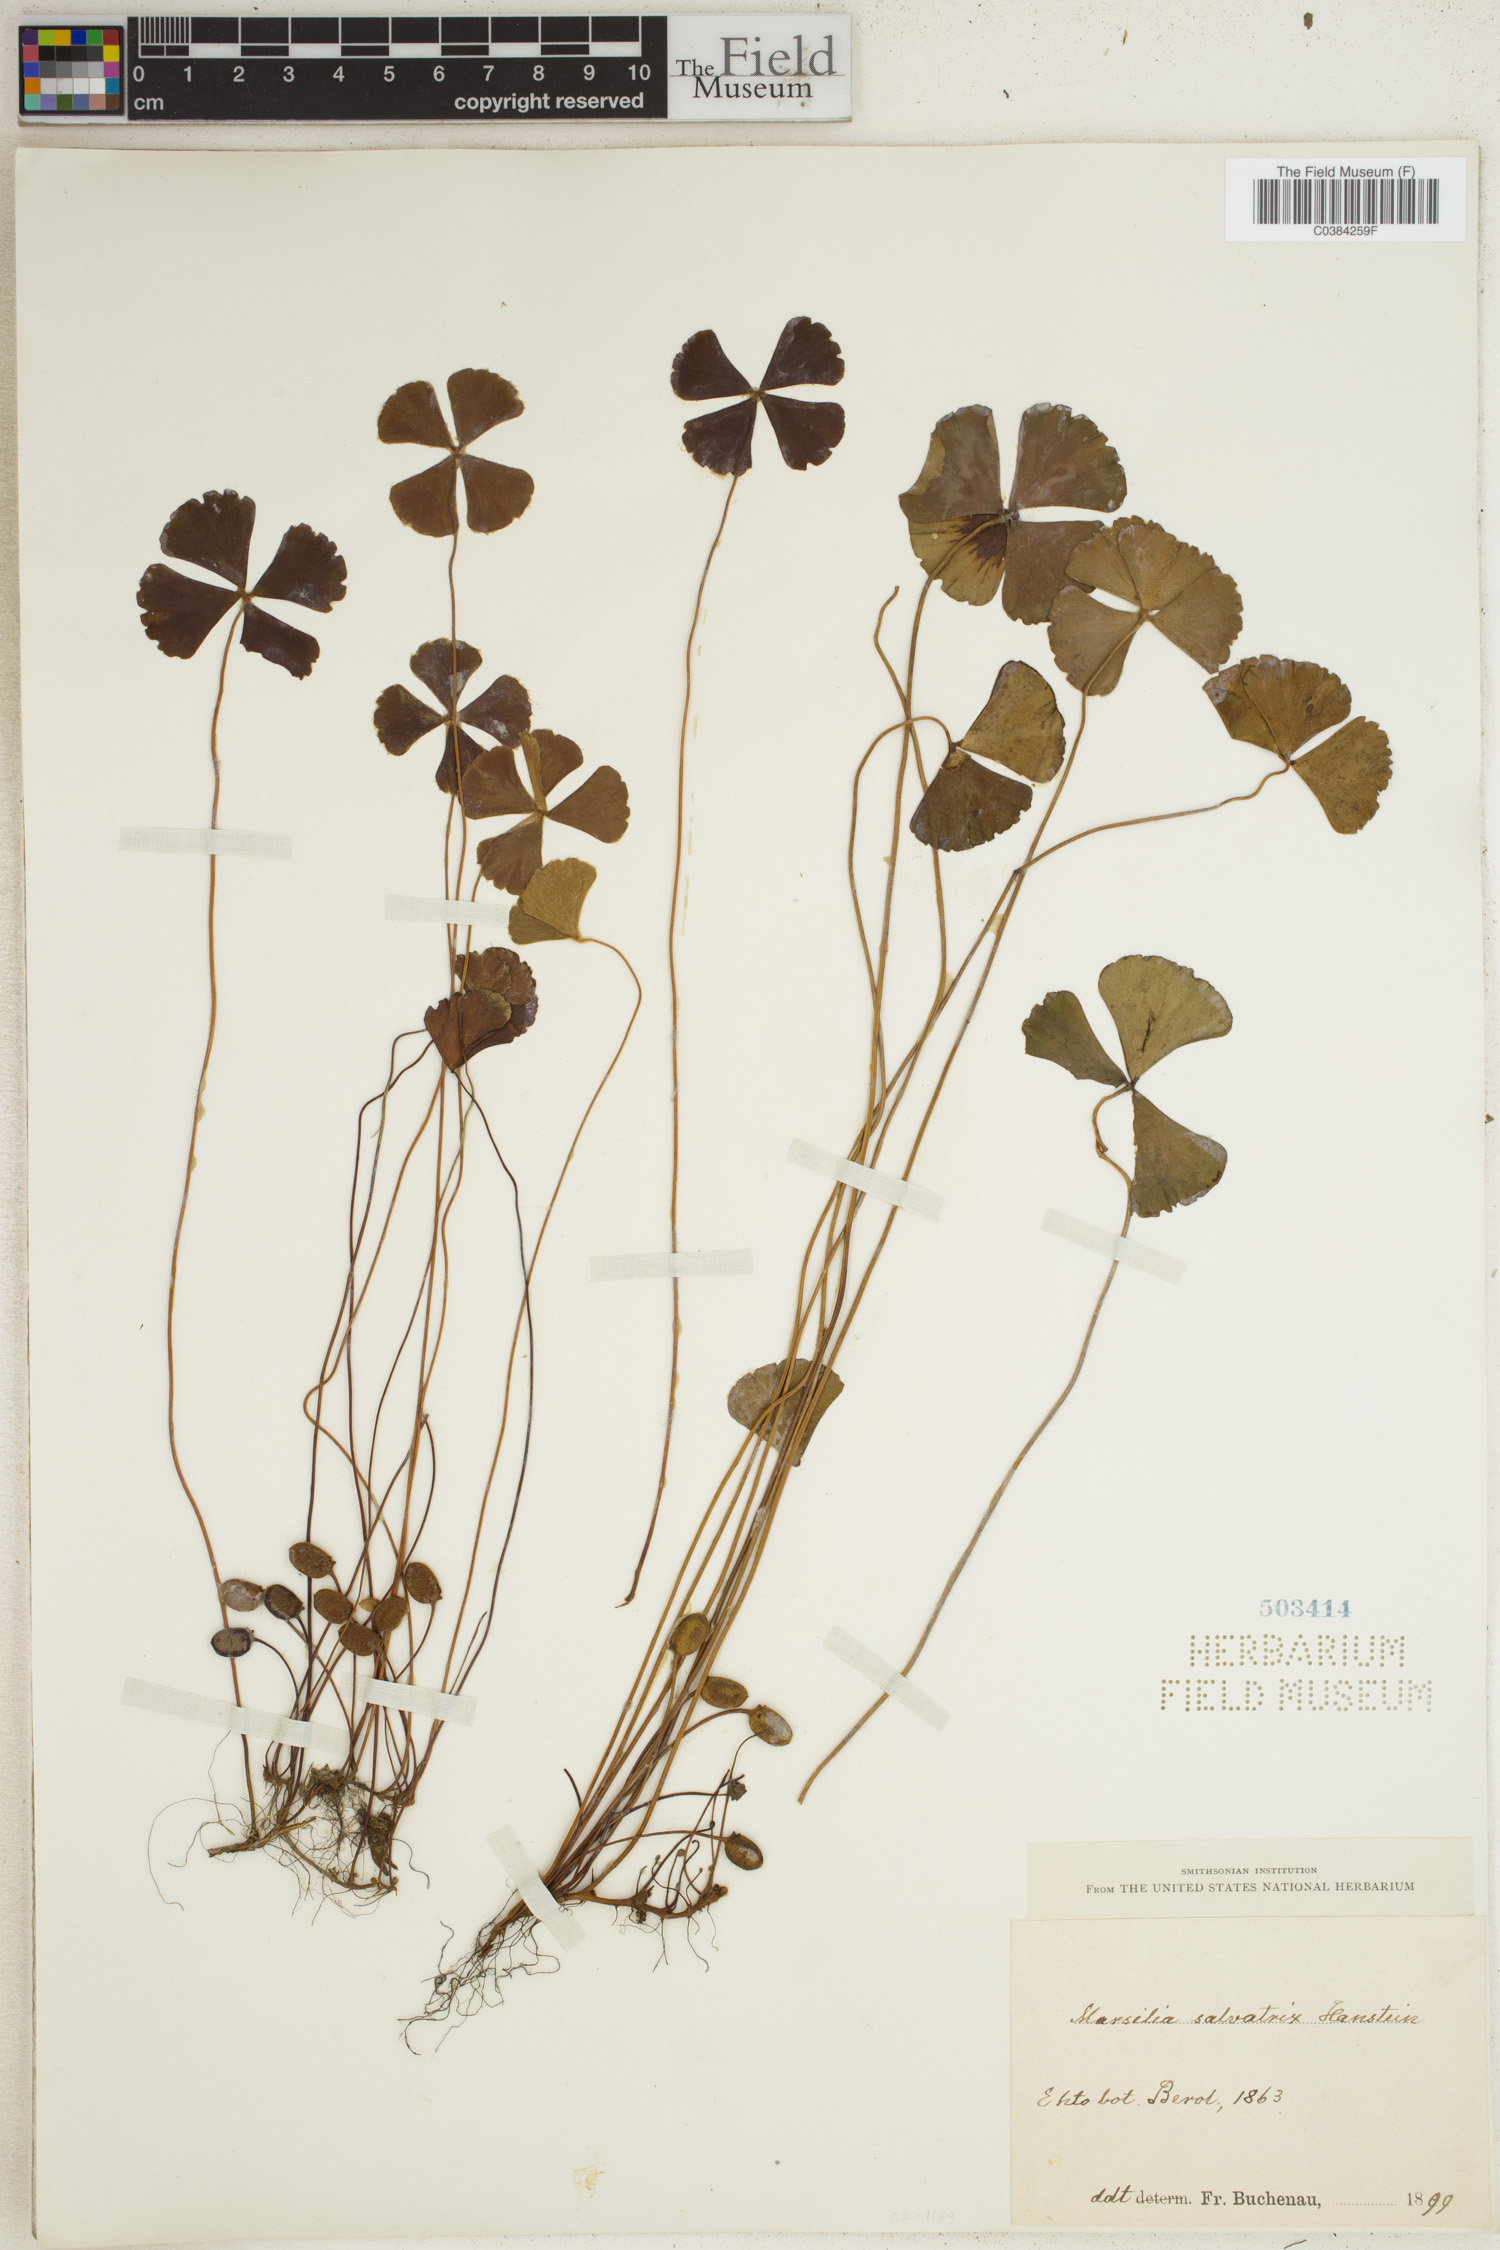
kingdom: Plantae
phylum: Tracheophyta
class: Polypodiopsida
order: Salviniales
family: Marsileaceae
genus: Marsilea
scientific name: Marsilea drummondii
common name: Nardoo
